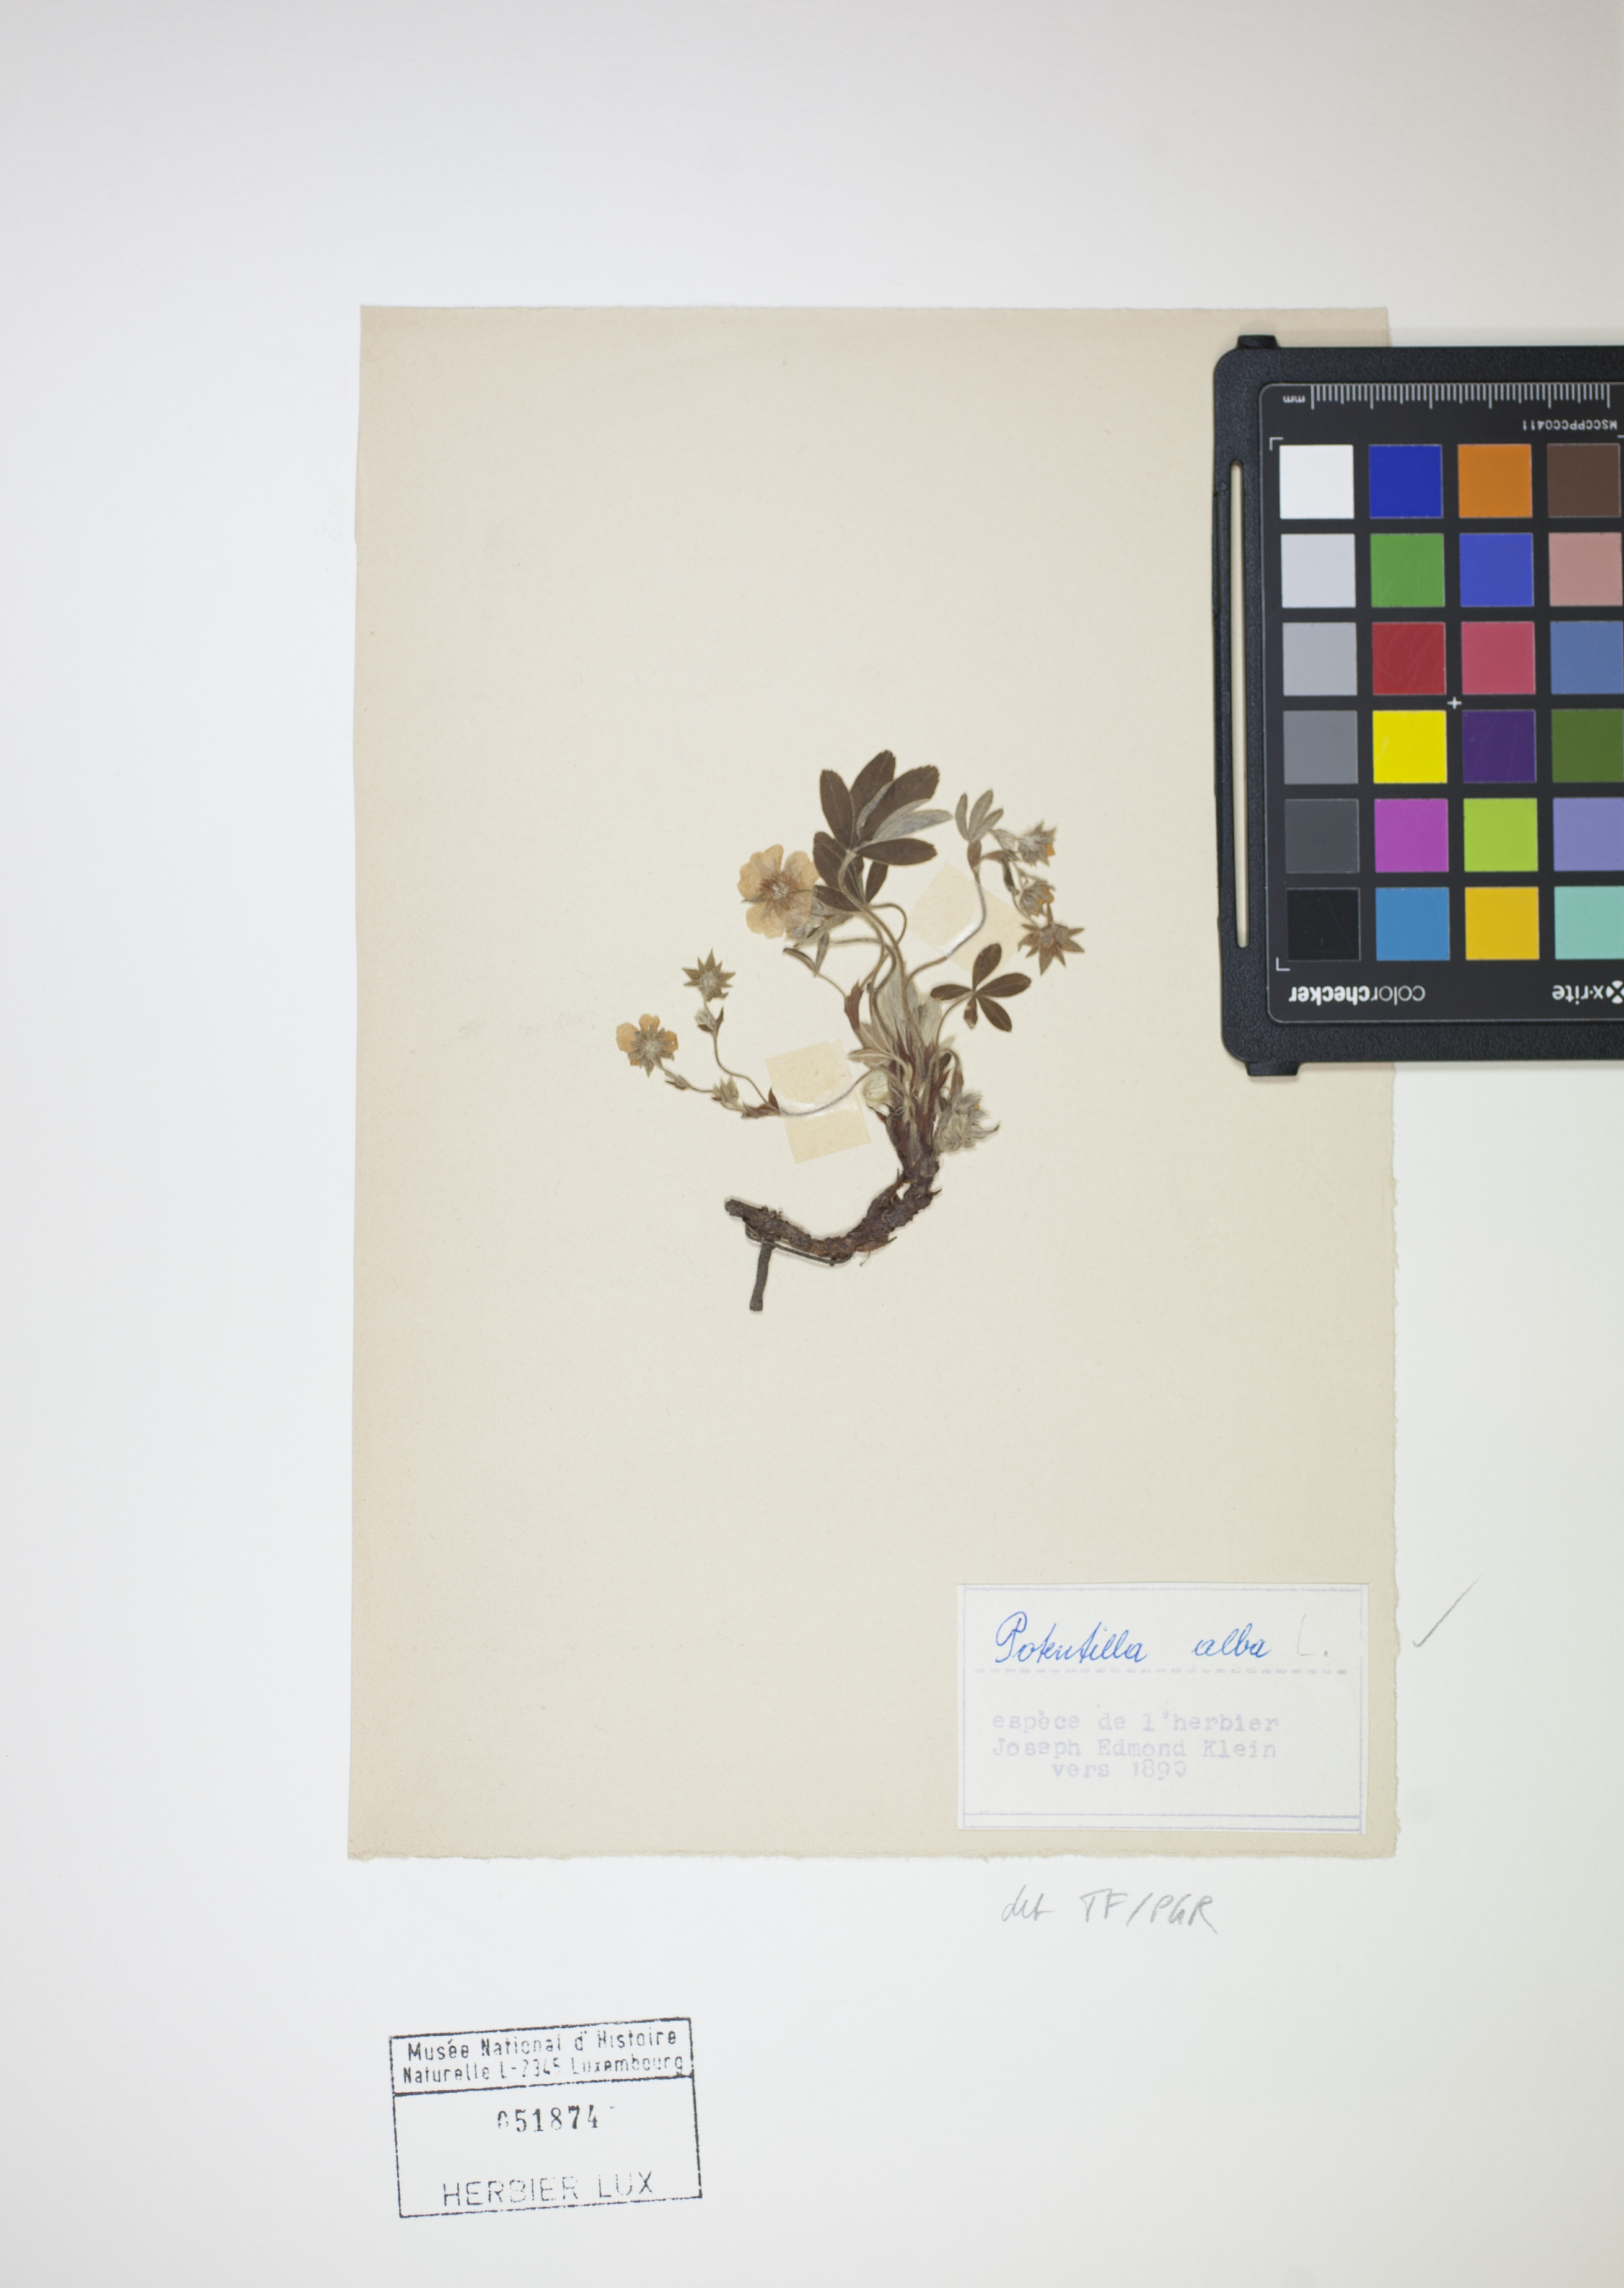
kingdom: Plantae
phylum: Tracheophyta
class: Magnoliopsida
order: Rosales
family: Rosaceae
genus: Potentilla
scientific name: Potentilla alba
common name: White cinquefoil
